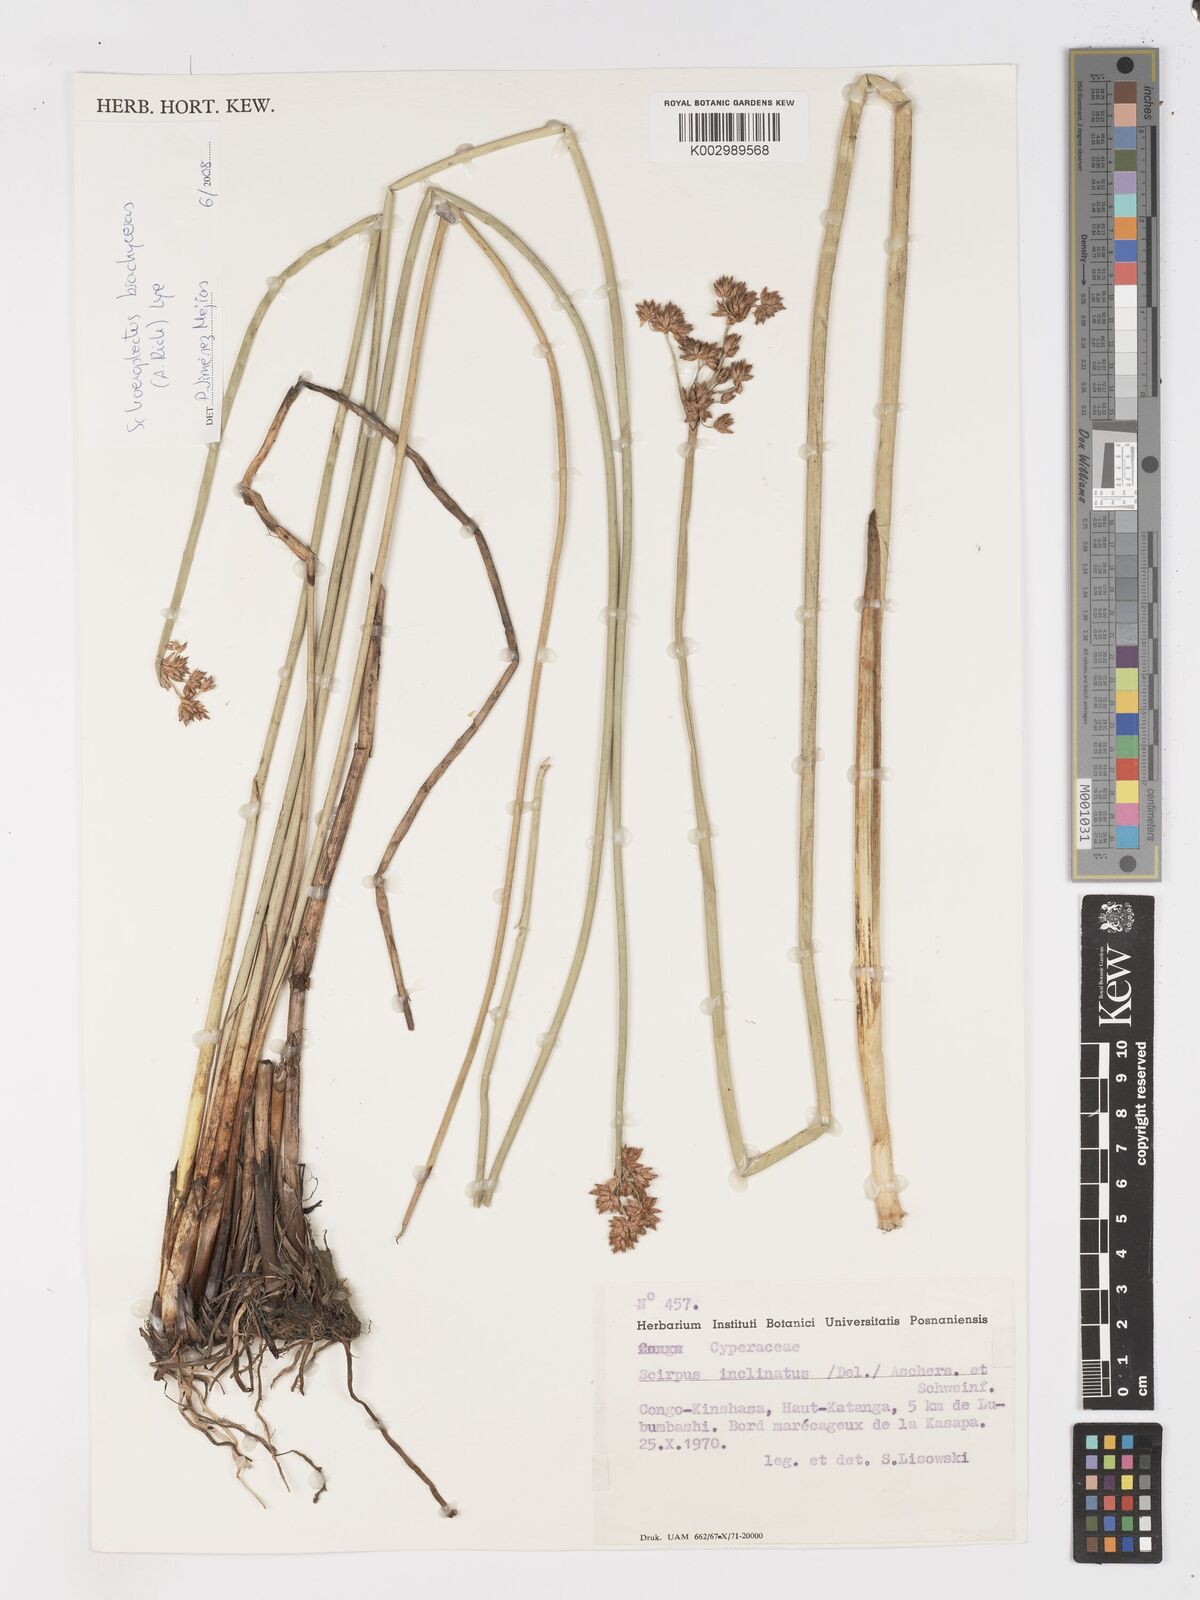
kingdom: Plantae
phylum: Tracheophyta
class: Liliopsida
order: Poales
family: Cyperaceae
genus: Schoenoplectiella
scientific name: Schoenoplectiella corymbosa
